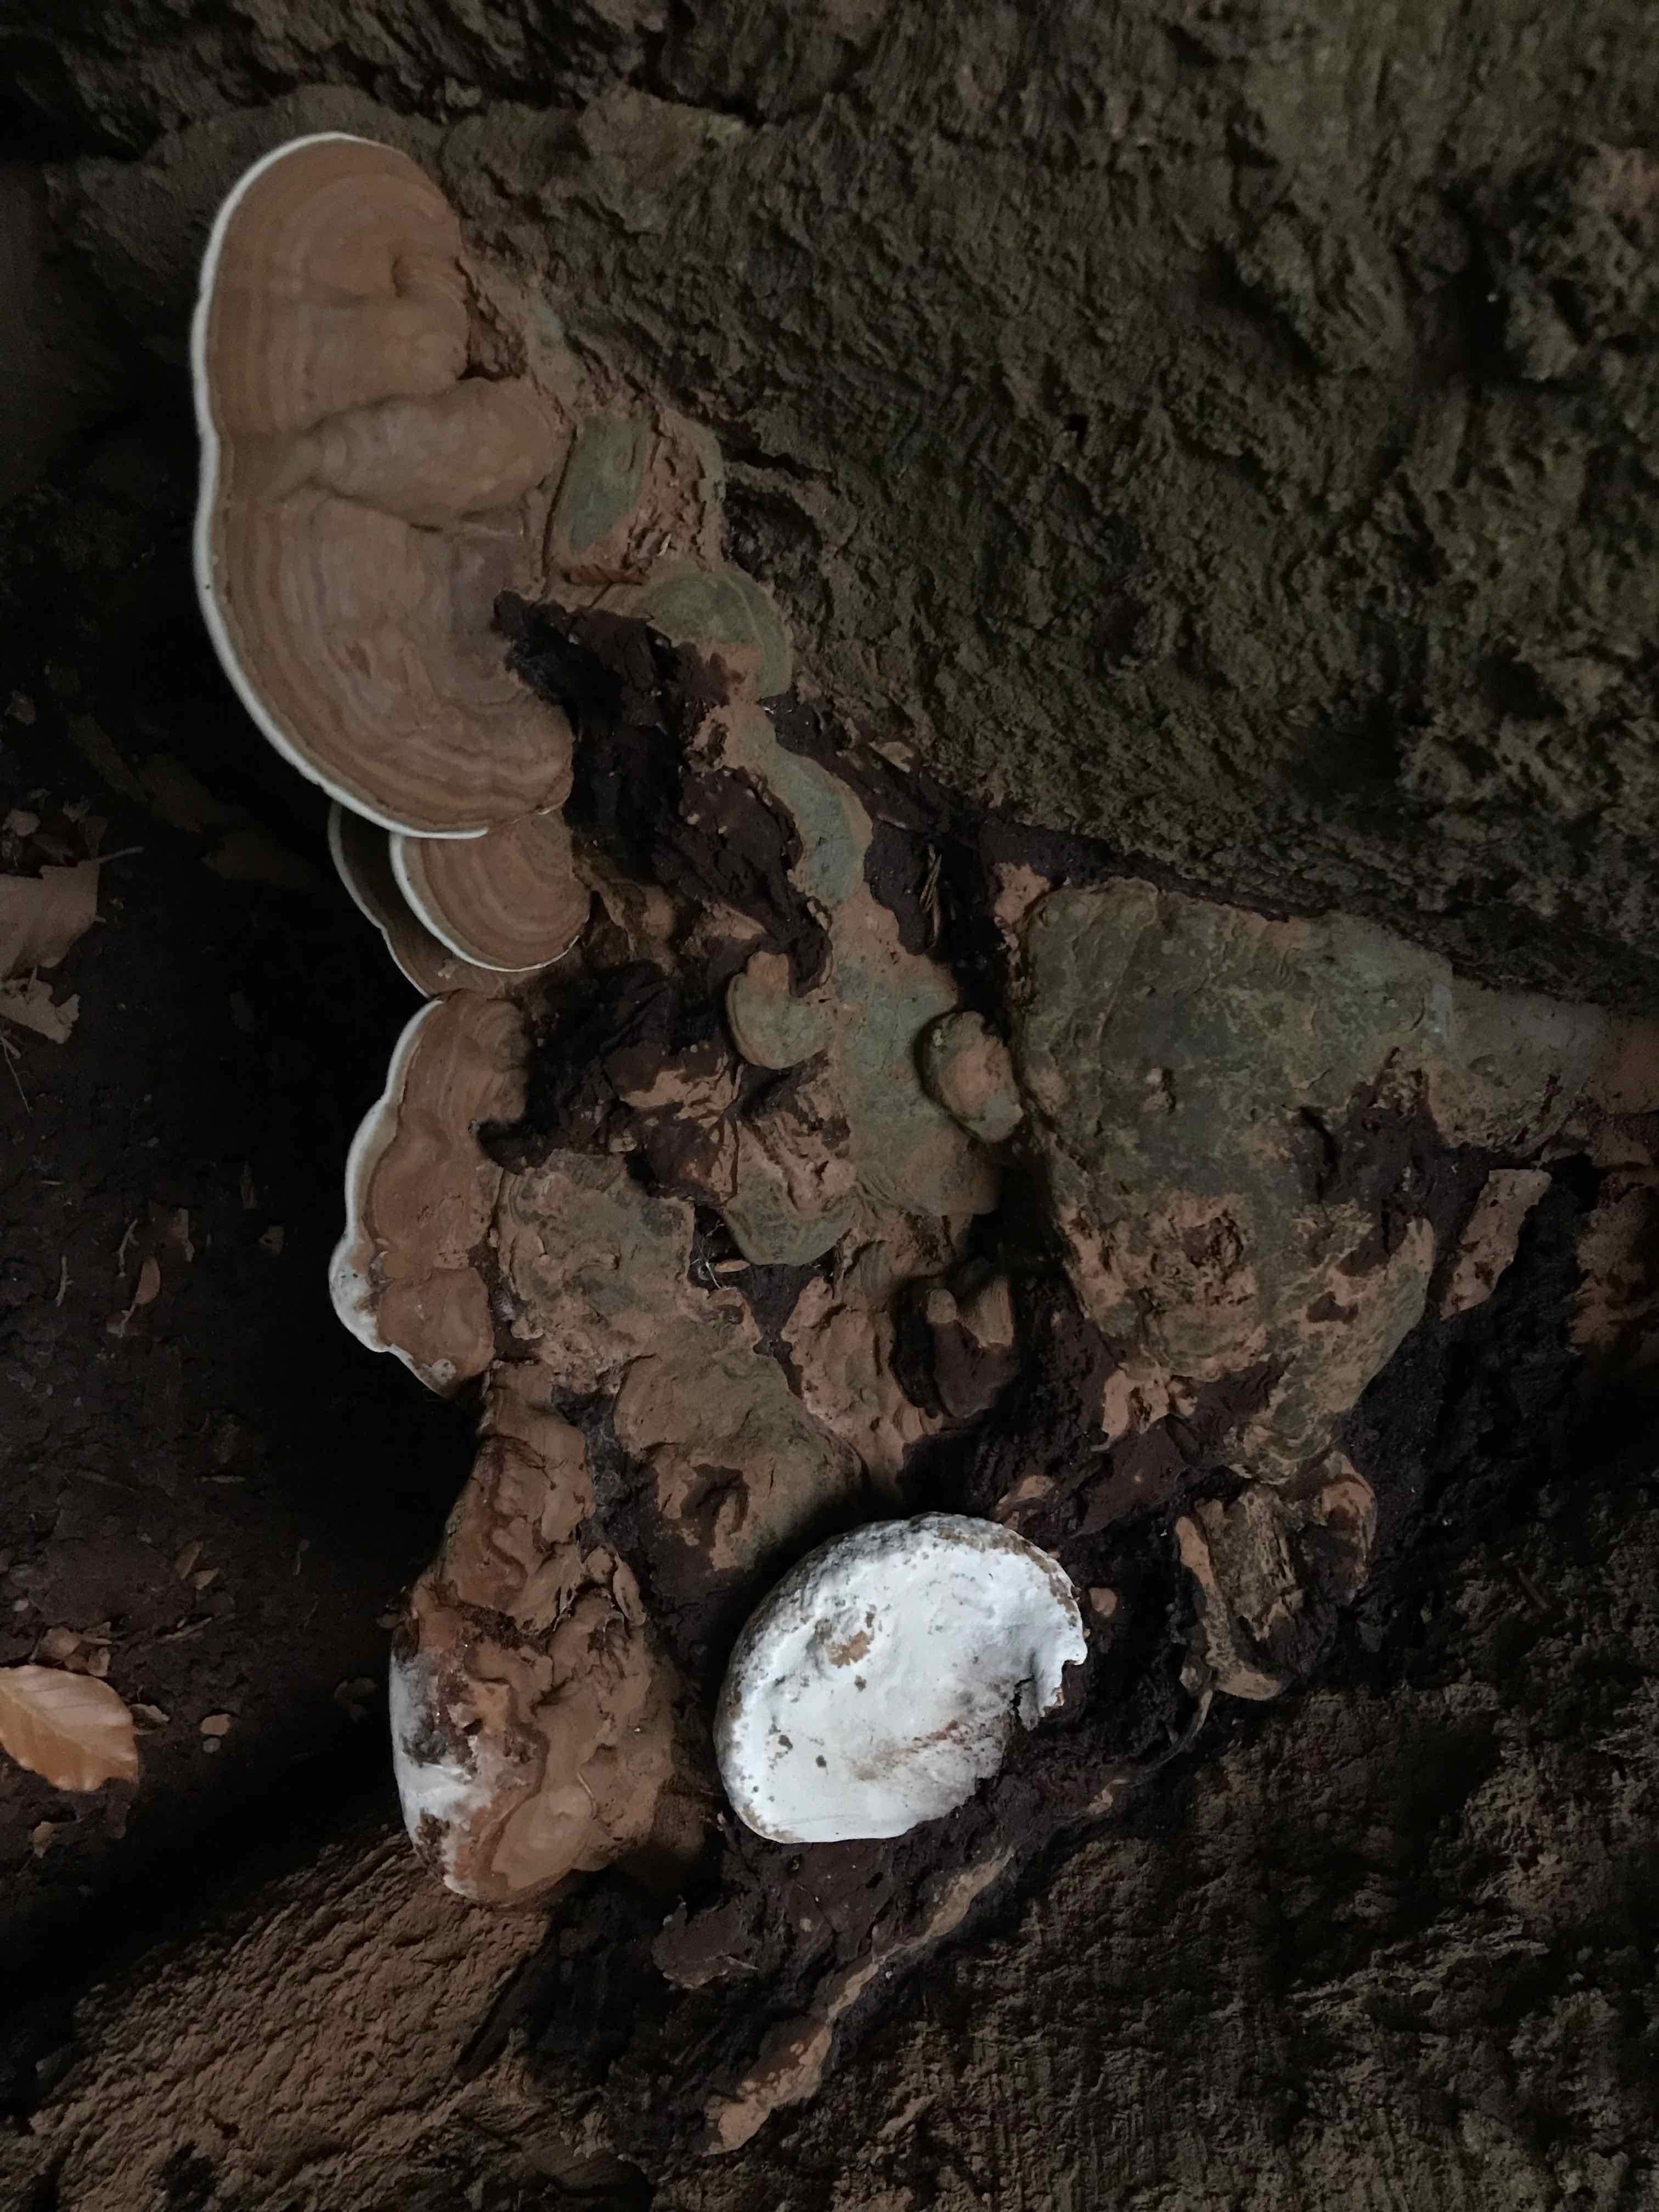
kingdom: Fungi
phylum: Basidiomycota
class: Agaricomycetes
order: Polyporales
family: Polyporaceae
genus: Ganoderma
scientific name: Ganoderma applanatum
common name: flad lakporesvamp
